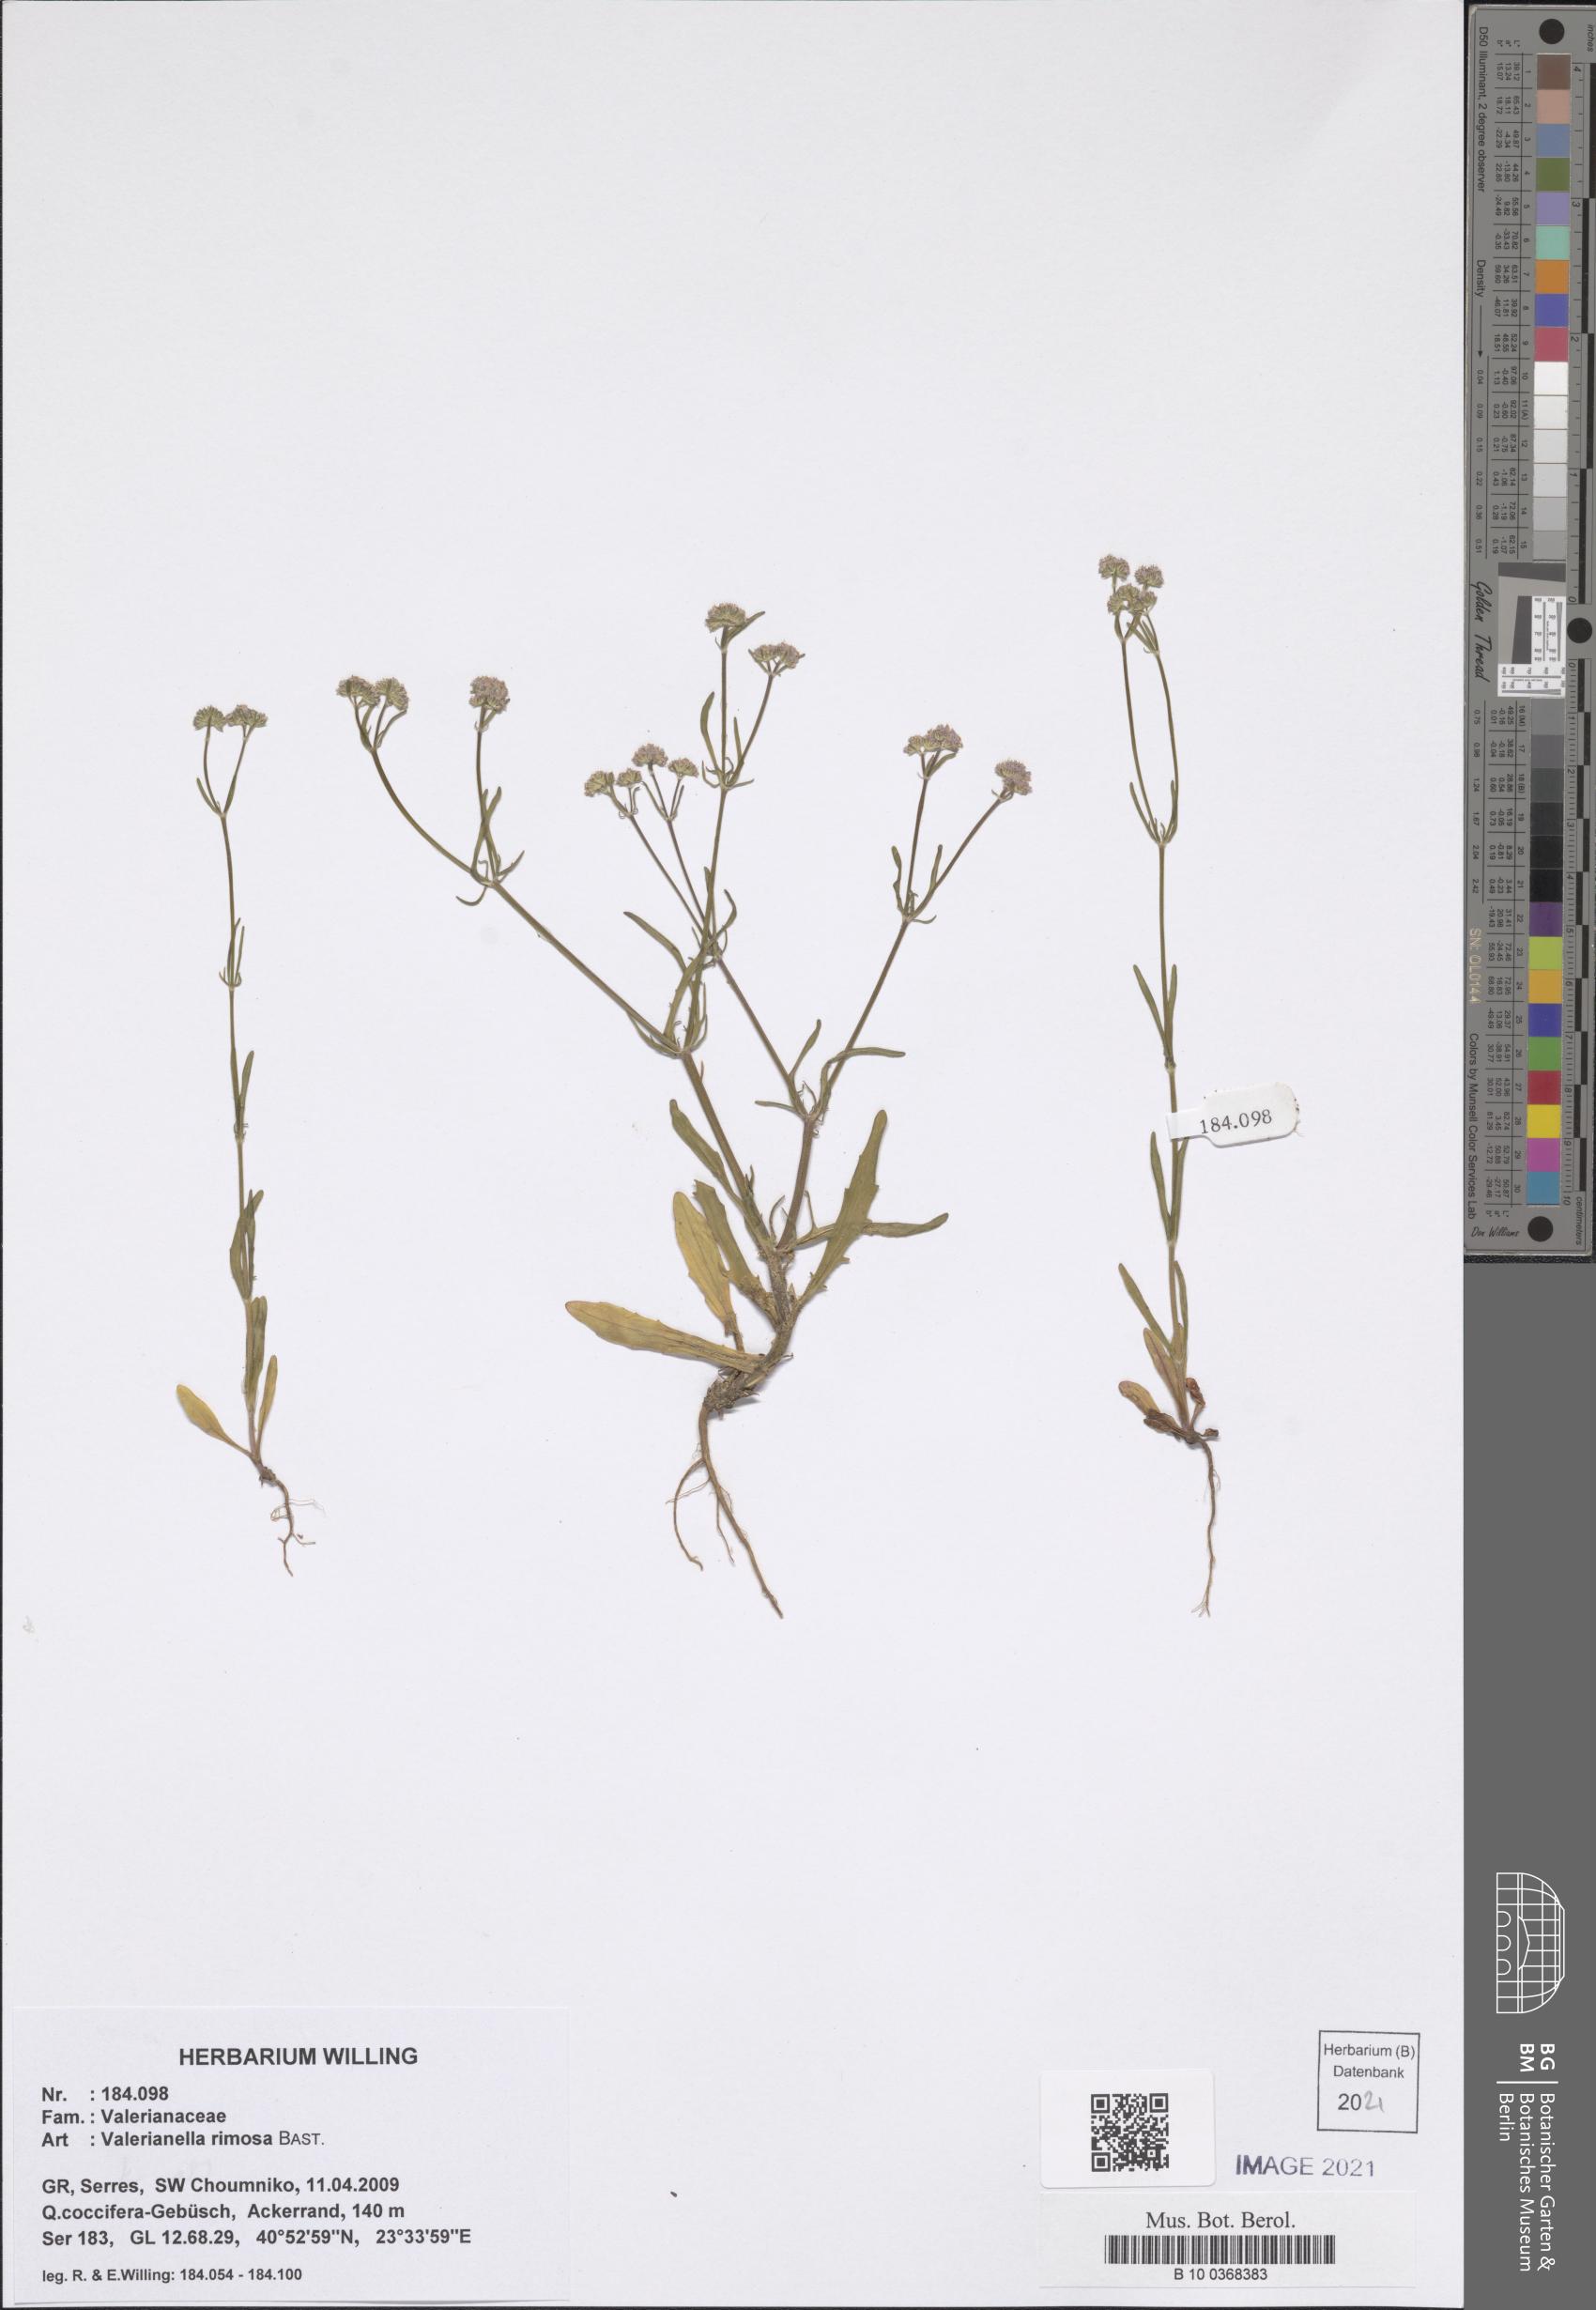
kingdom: Plantae
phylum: Tracheophyta
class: Magnoliopsida
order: Dipsacales
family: Caprifoliaceae
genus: Valerianella
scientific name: Valerianella rimosa
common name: Broad-fruited cornsalad
